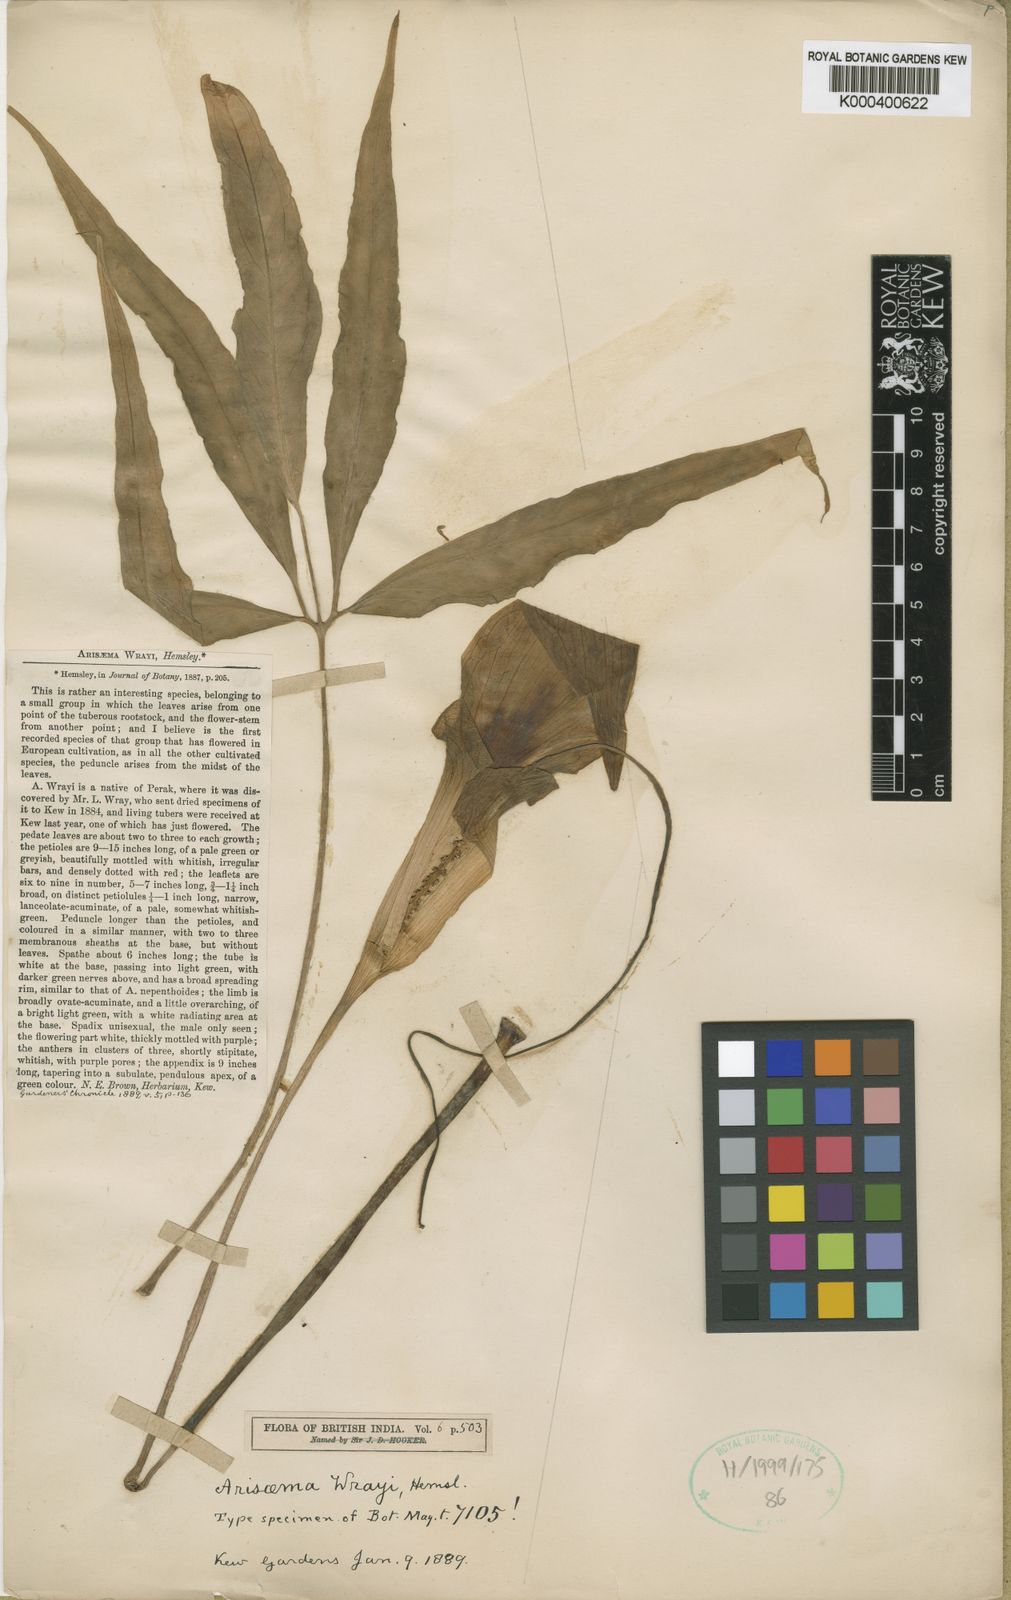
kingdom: Plantae
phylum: Tracheophyta
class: Liliopsida
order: Alismatales
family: Araceae
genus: Arisaema
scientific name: Arisaema wrayi
